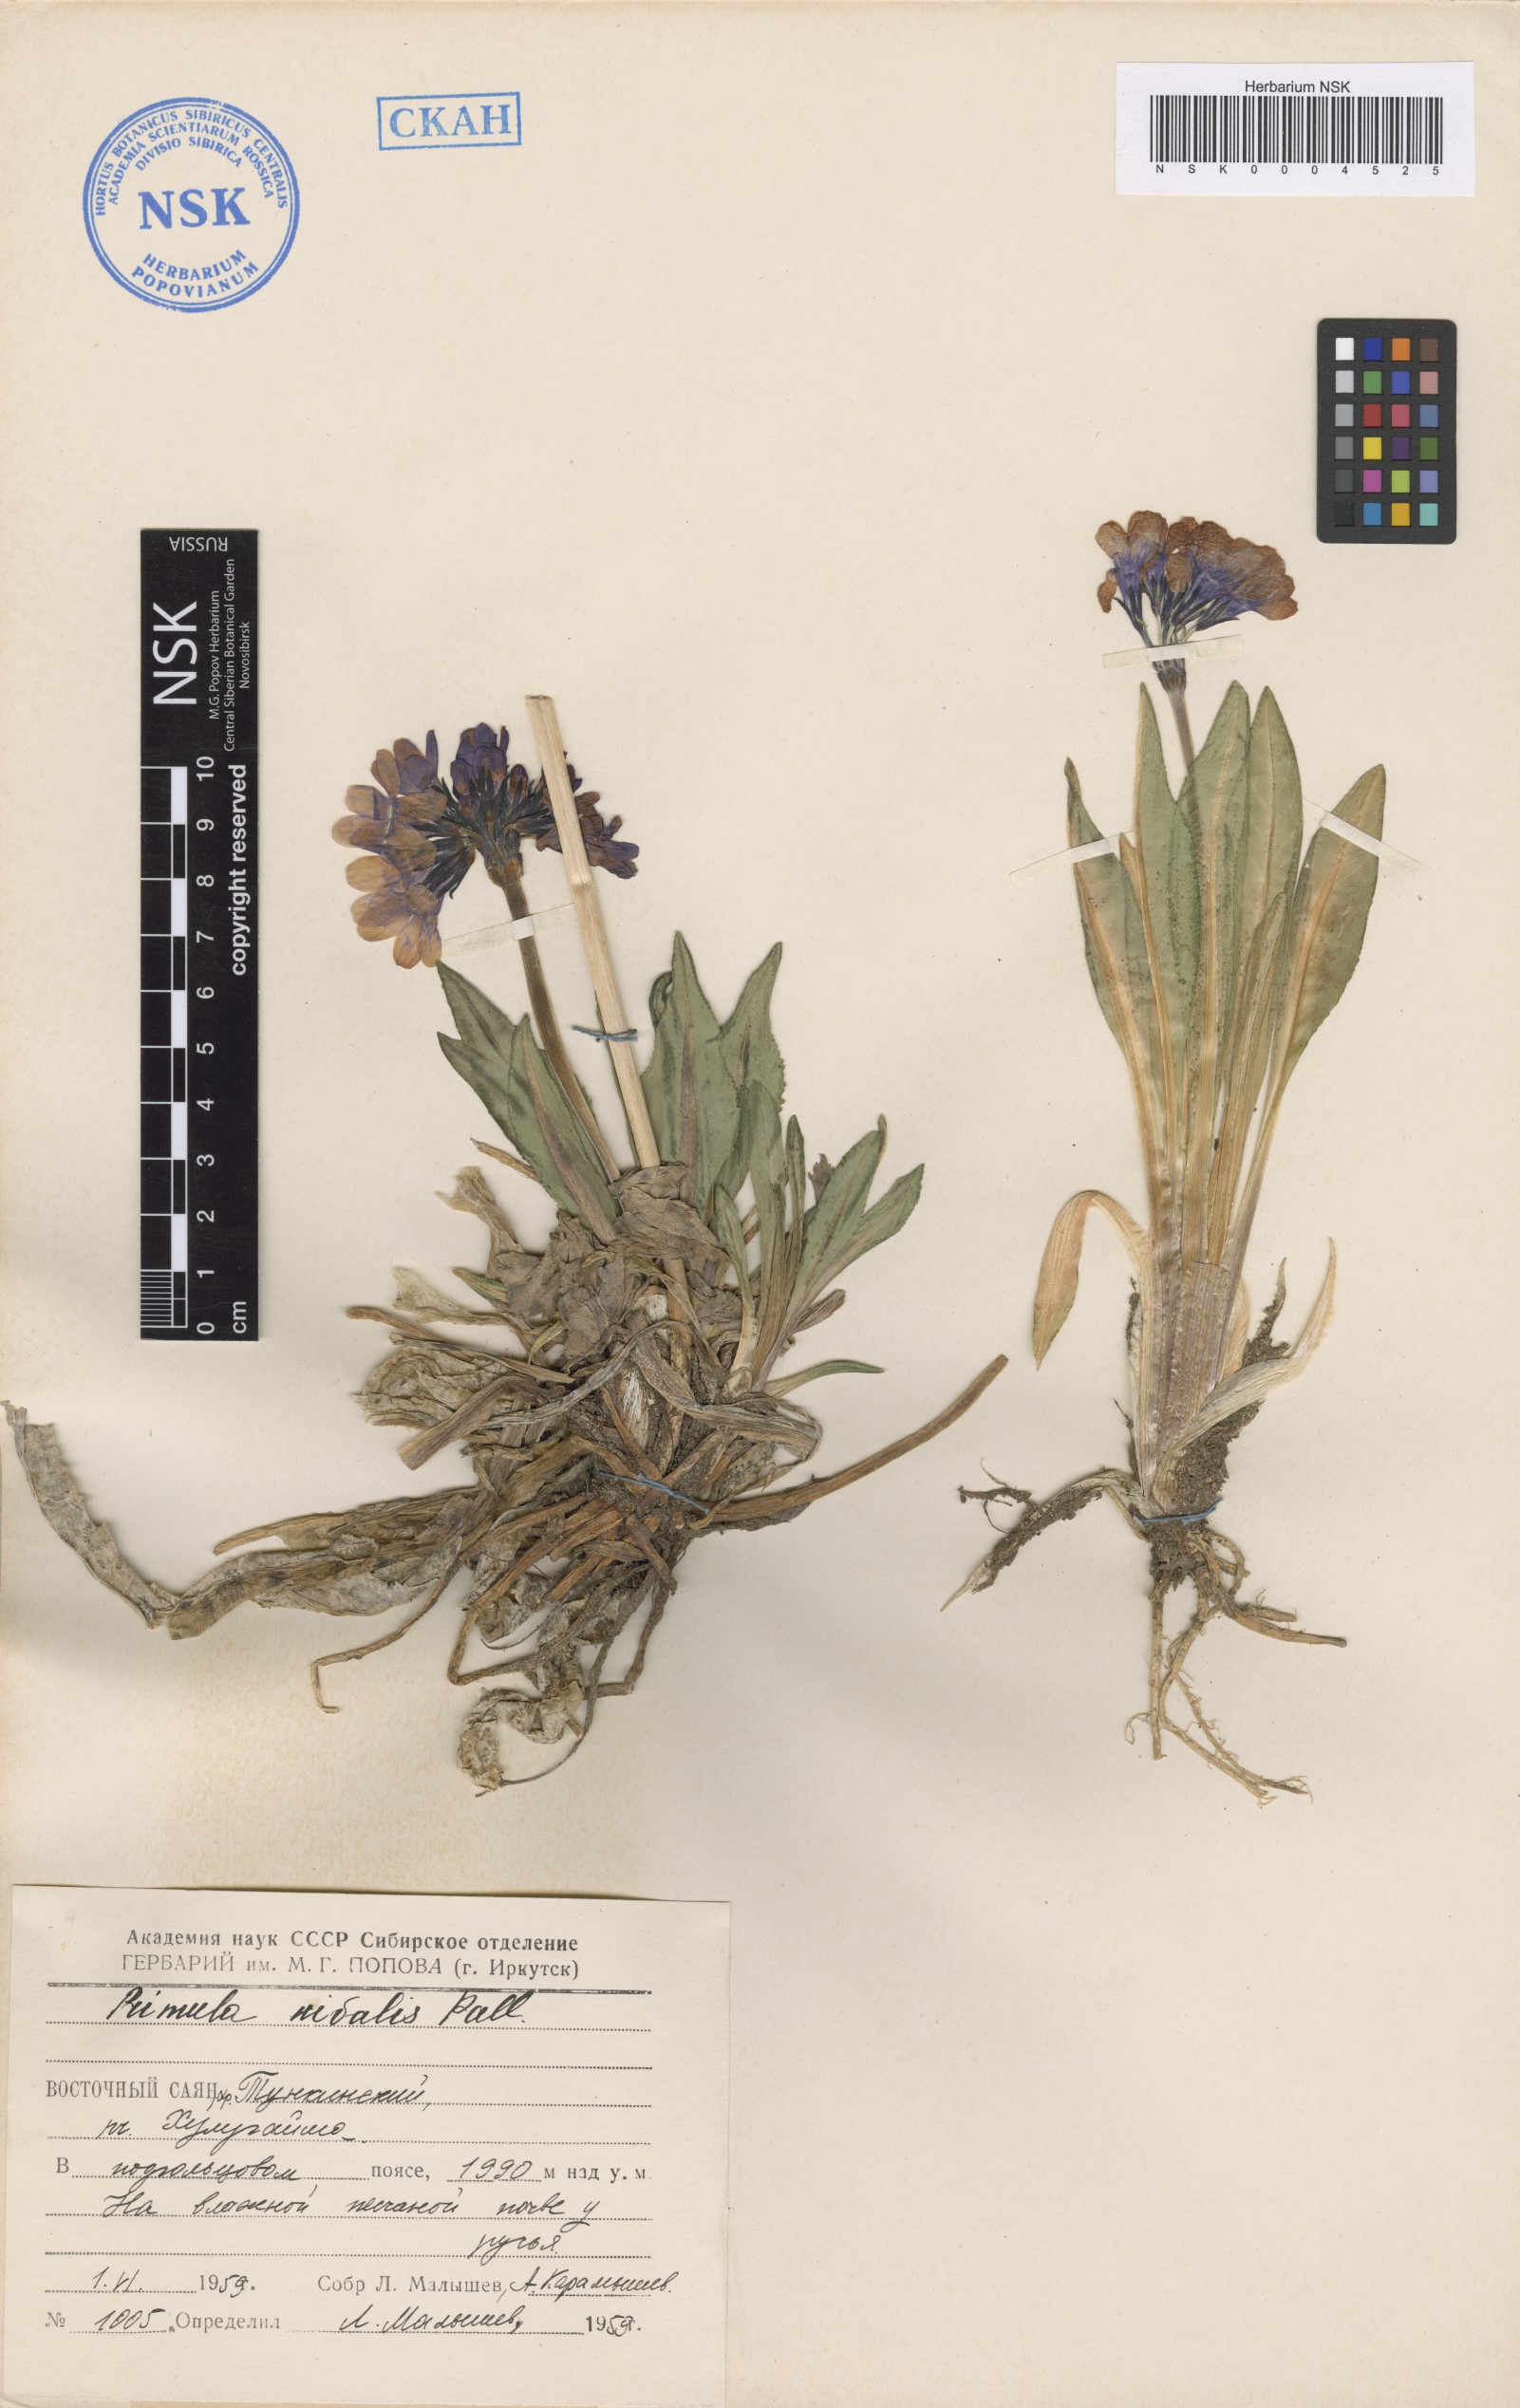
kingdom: Plantae
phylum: Tracheophyta
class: Magnoliopsida
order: Ericales
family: Primulaceae
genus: Primula
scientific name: Primula nivalis
